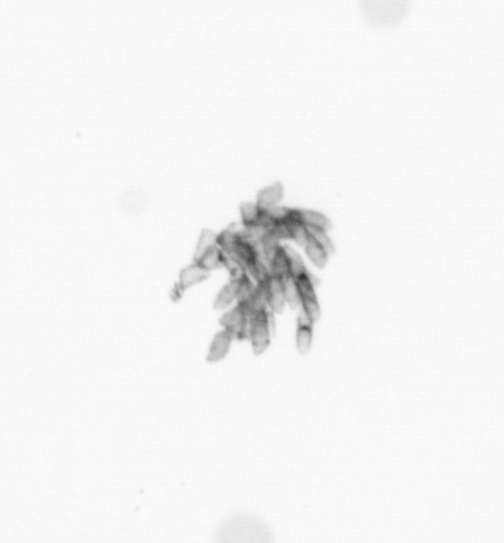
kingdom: Chromista
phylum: Ochrophyta
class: Bacillariophyceae
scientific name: Bacillariophyceae
